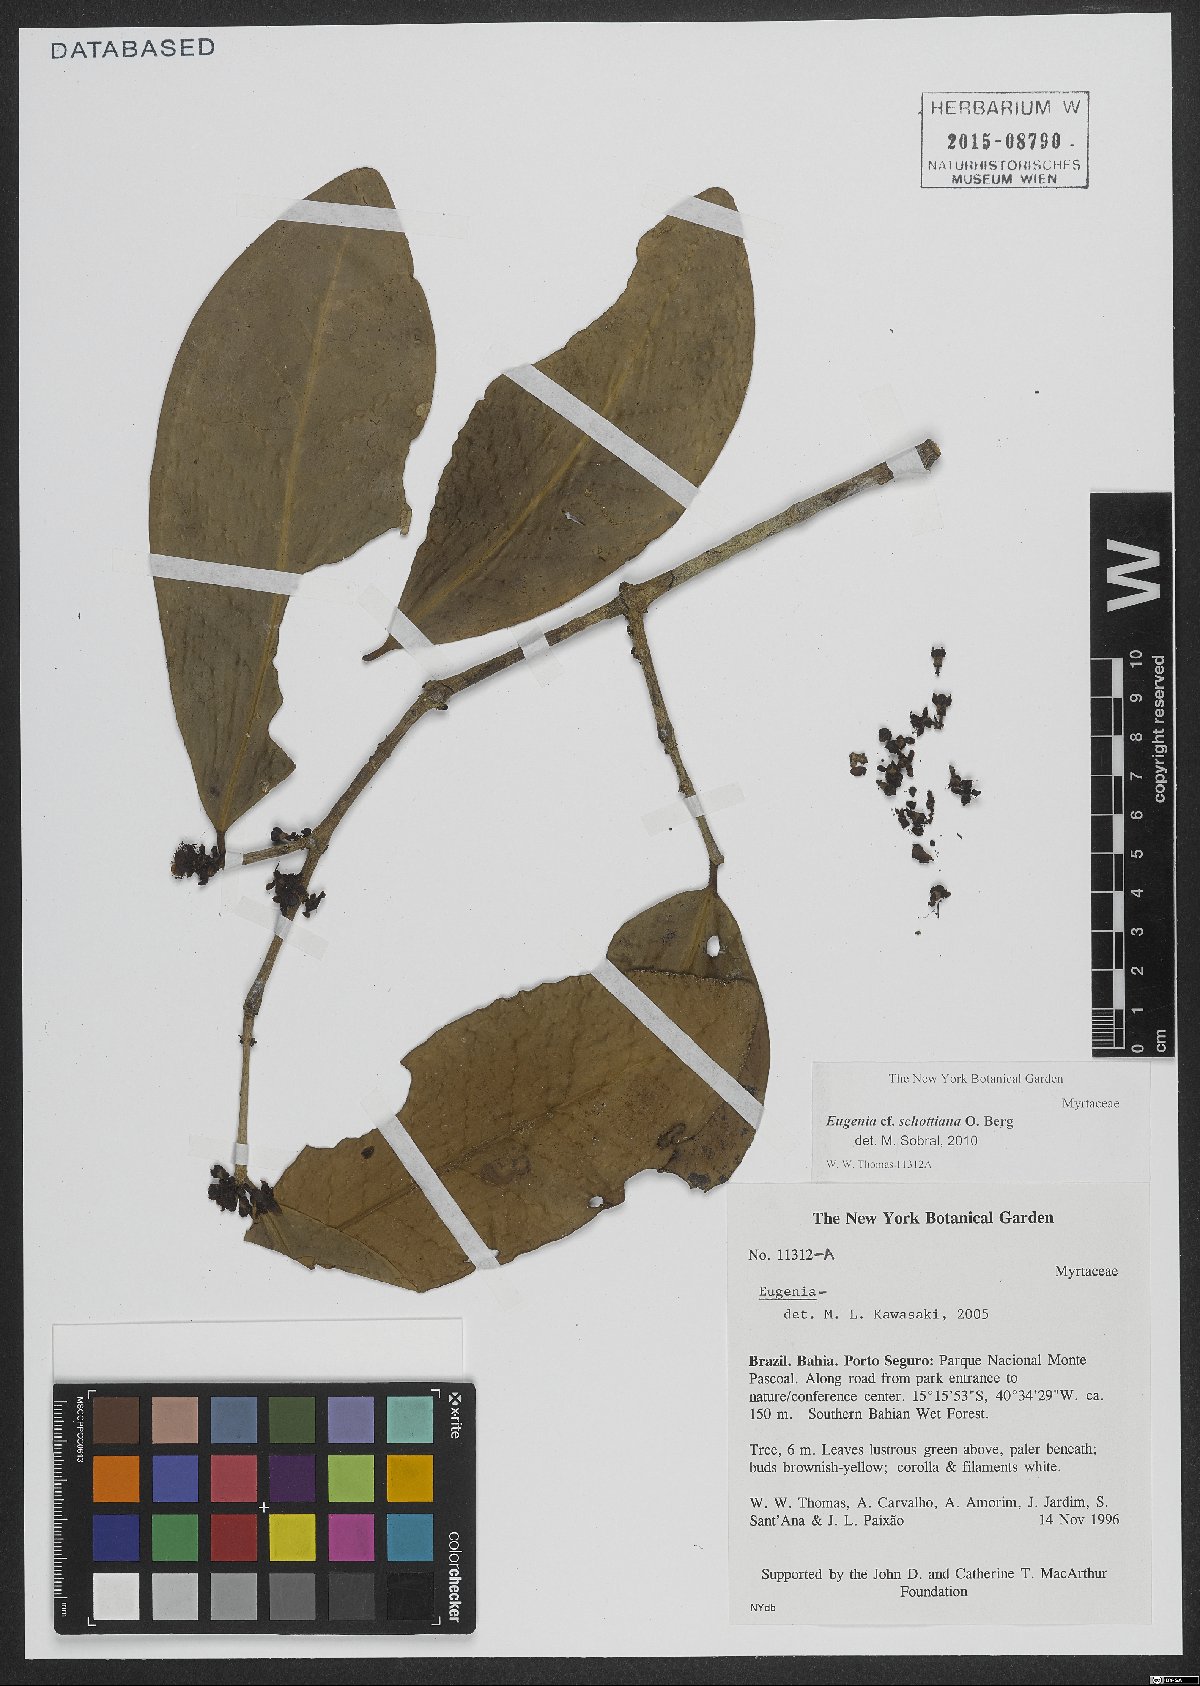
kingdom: Plantae
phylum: Tracheophyta
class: Magnoliopsida
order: Myrtales
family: Myrtaceae
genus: Eugenia
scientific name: Eugenia schottiana
